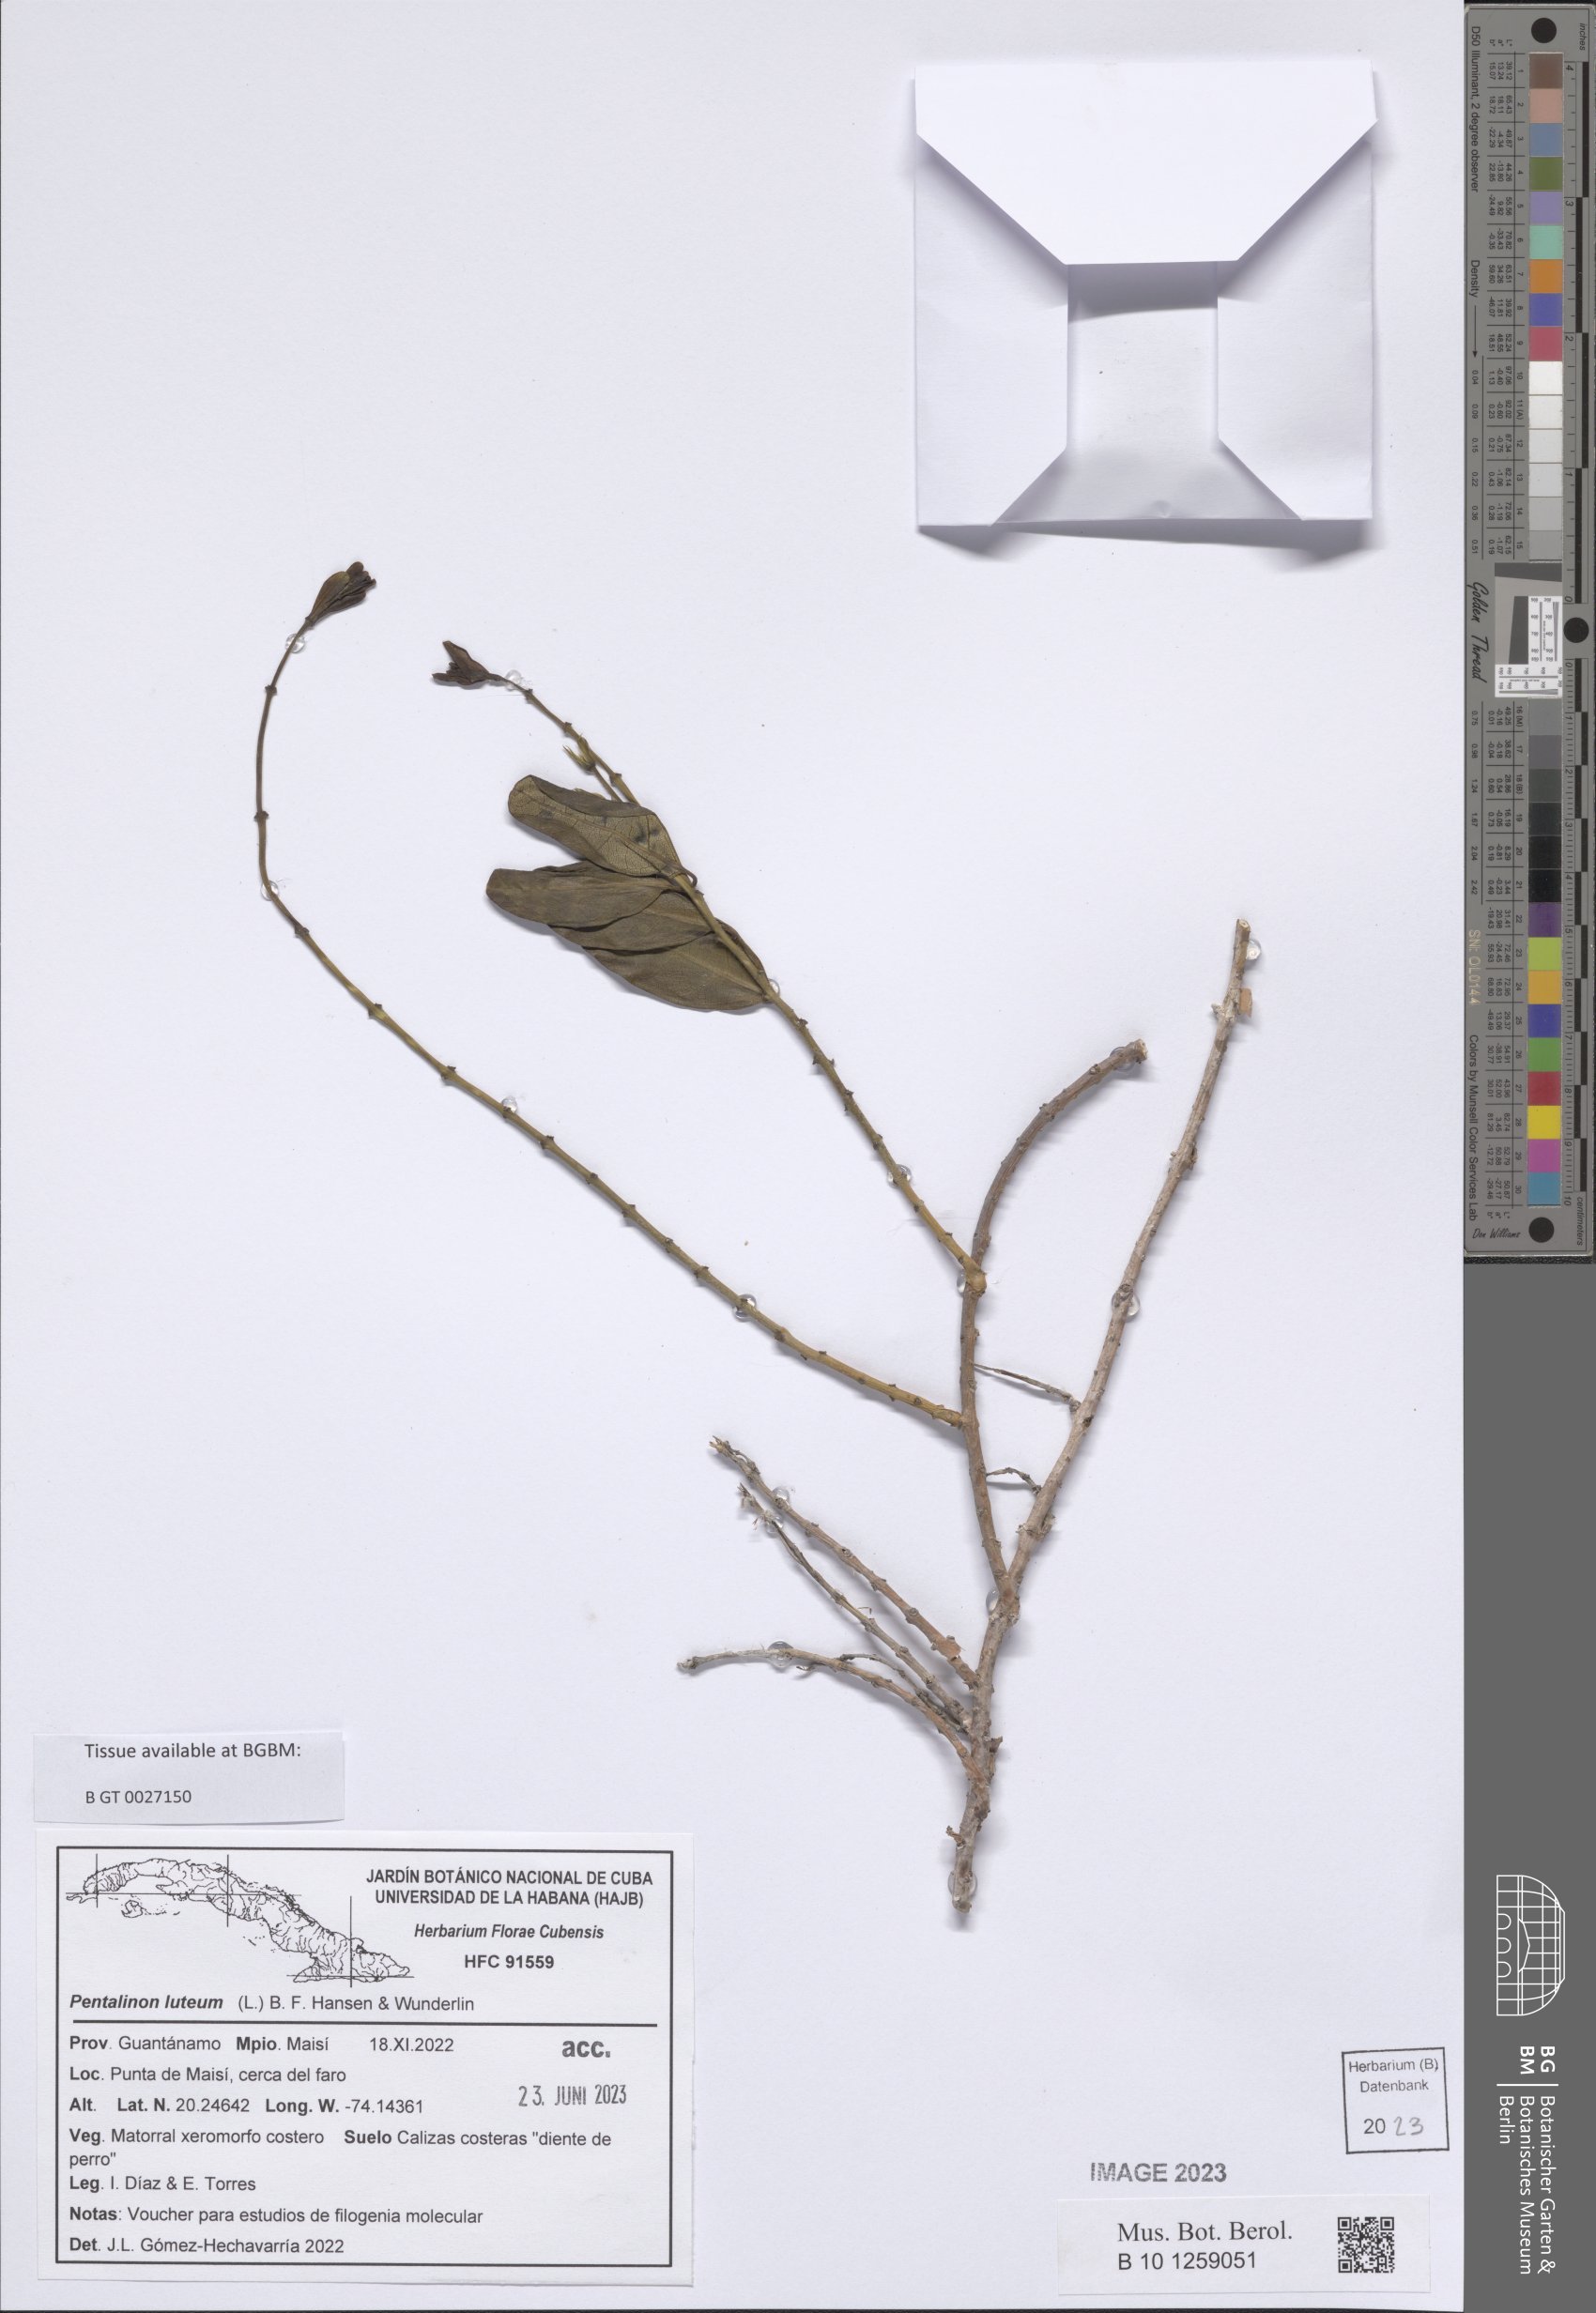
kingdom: Plantae
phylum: Tracheophyta
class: Magnoliopsida
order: Gentianales
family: Apocynaceae
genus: Pentalinon
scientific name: Pentalinon luteum
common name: Licebush
